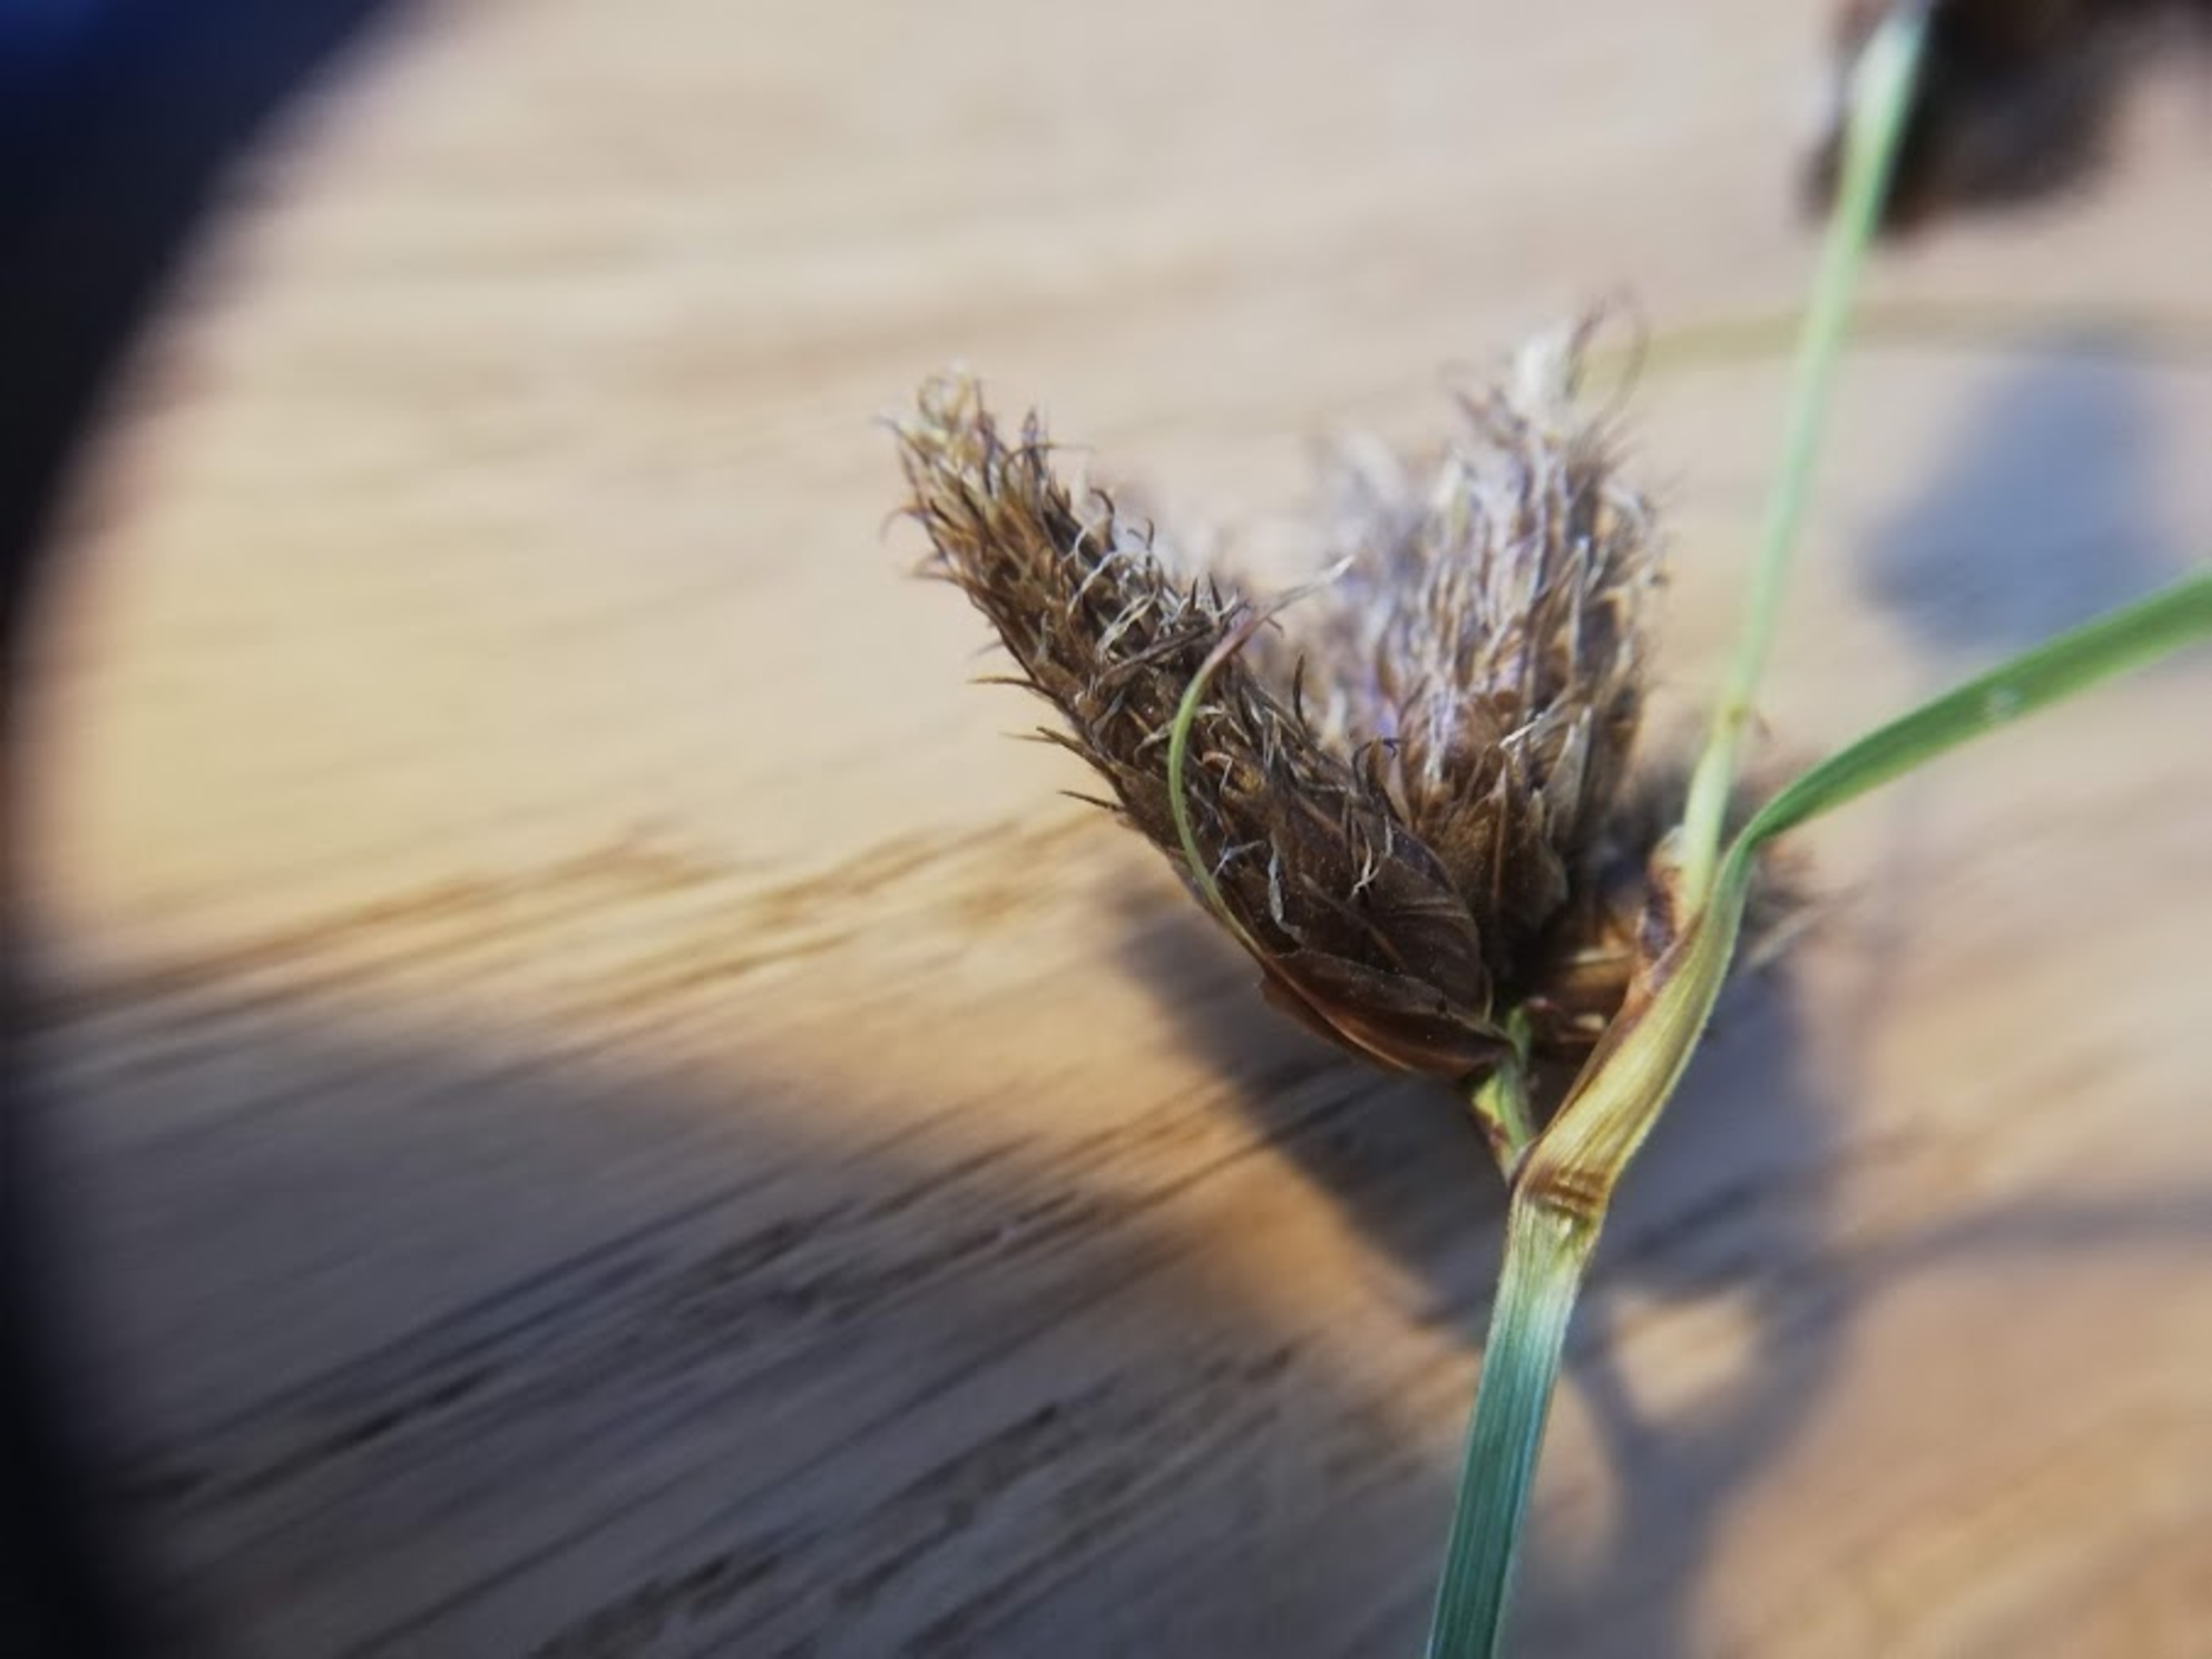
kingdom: Plantae
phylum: Tracheophyta
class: Liliopsida
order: Poales
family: Cyperaceae
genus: Bolboschoenus
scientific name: Bolboschoenus maritimus
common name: Strand-kogleaks
